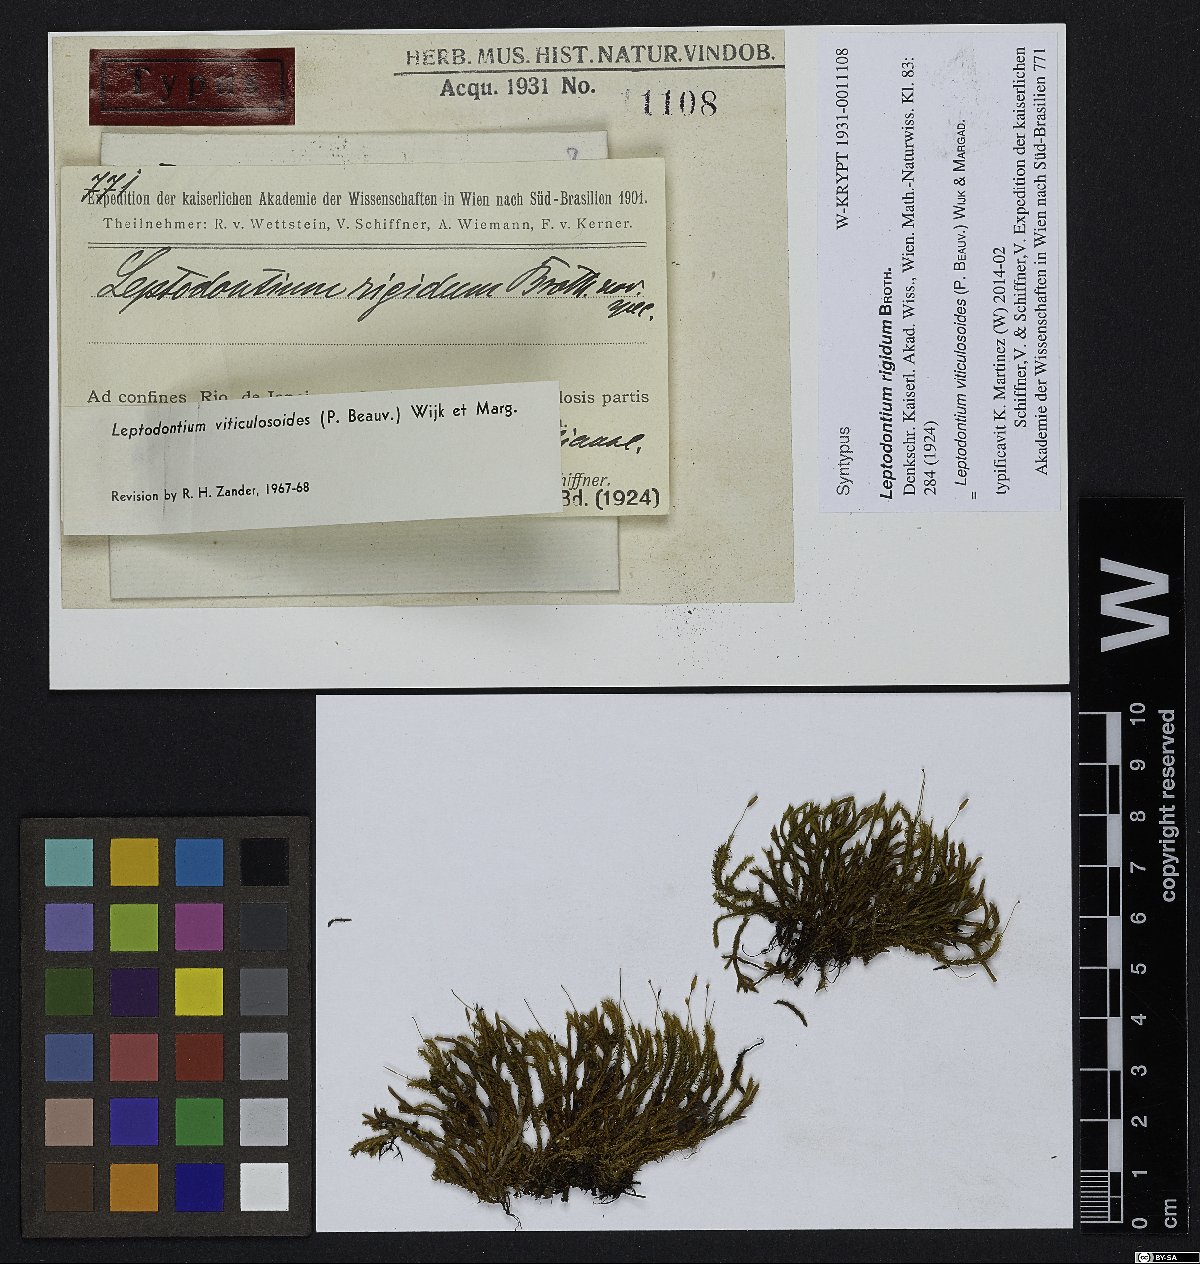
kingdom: Plantae
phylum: Bryophyta
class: Bryopsida
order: Pottiales
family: Pottiaceae
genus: Leptodontium
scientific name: Leptodontium viticulosoides
